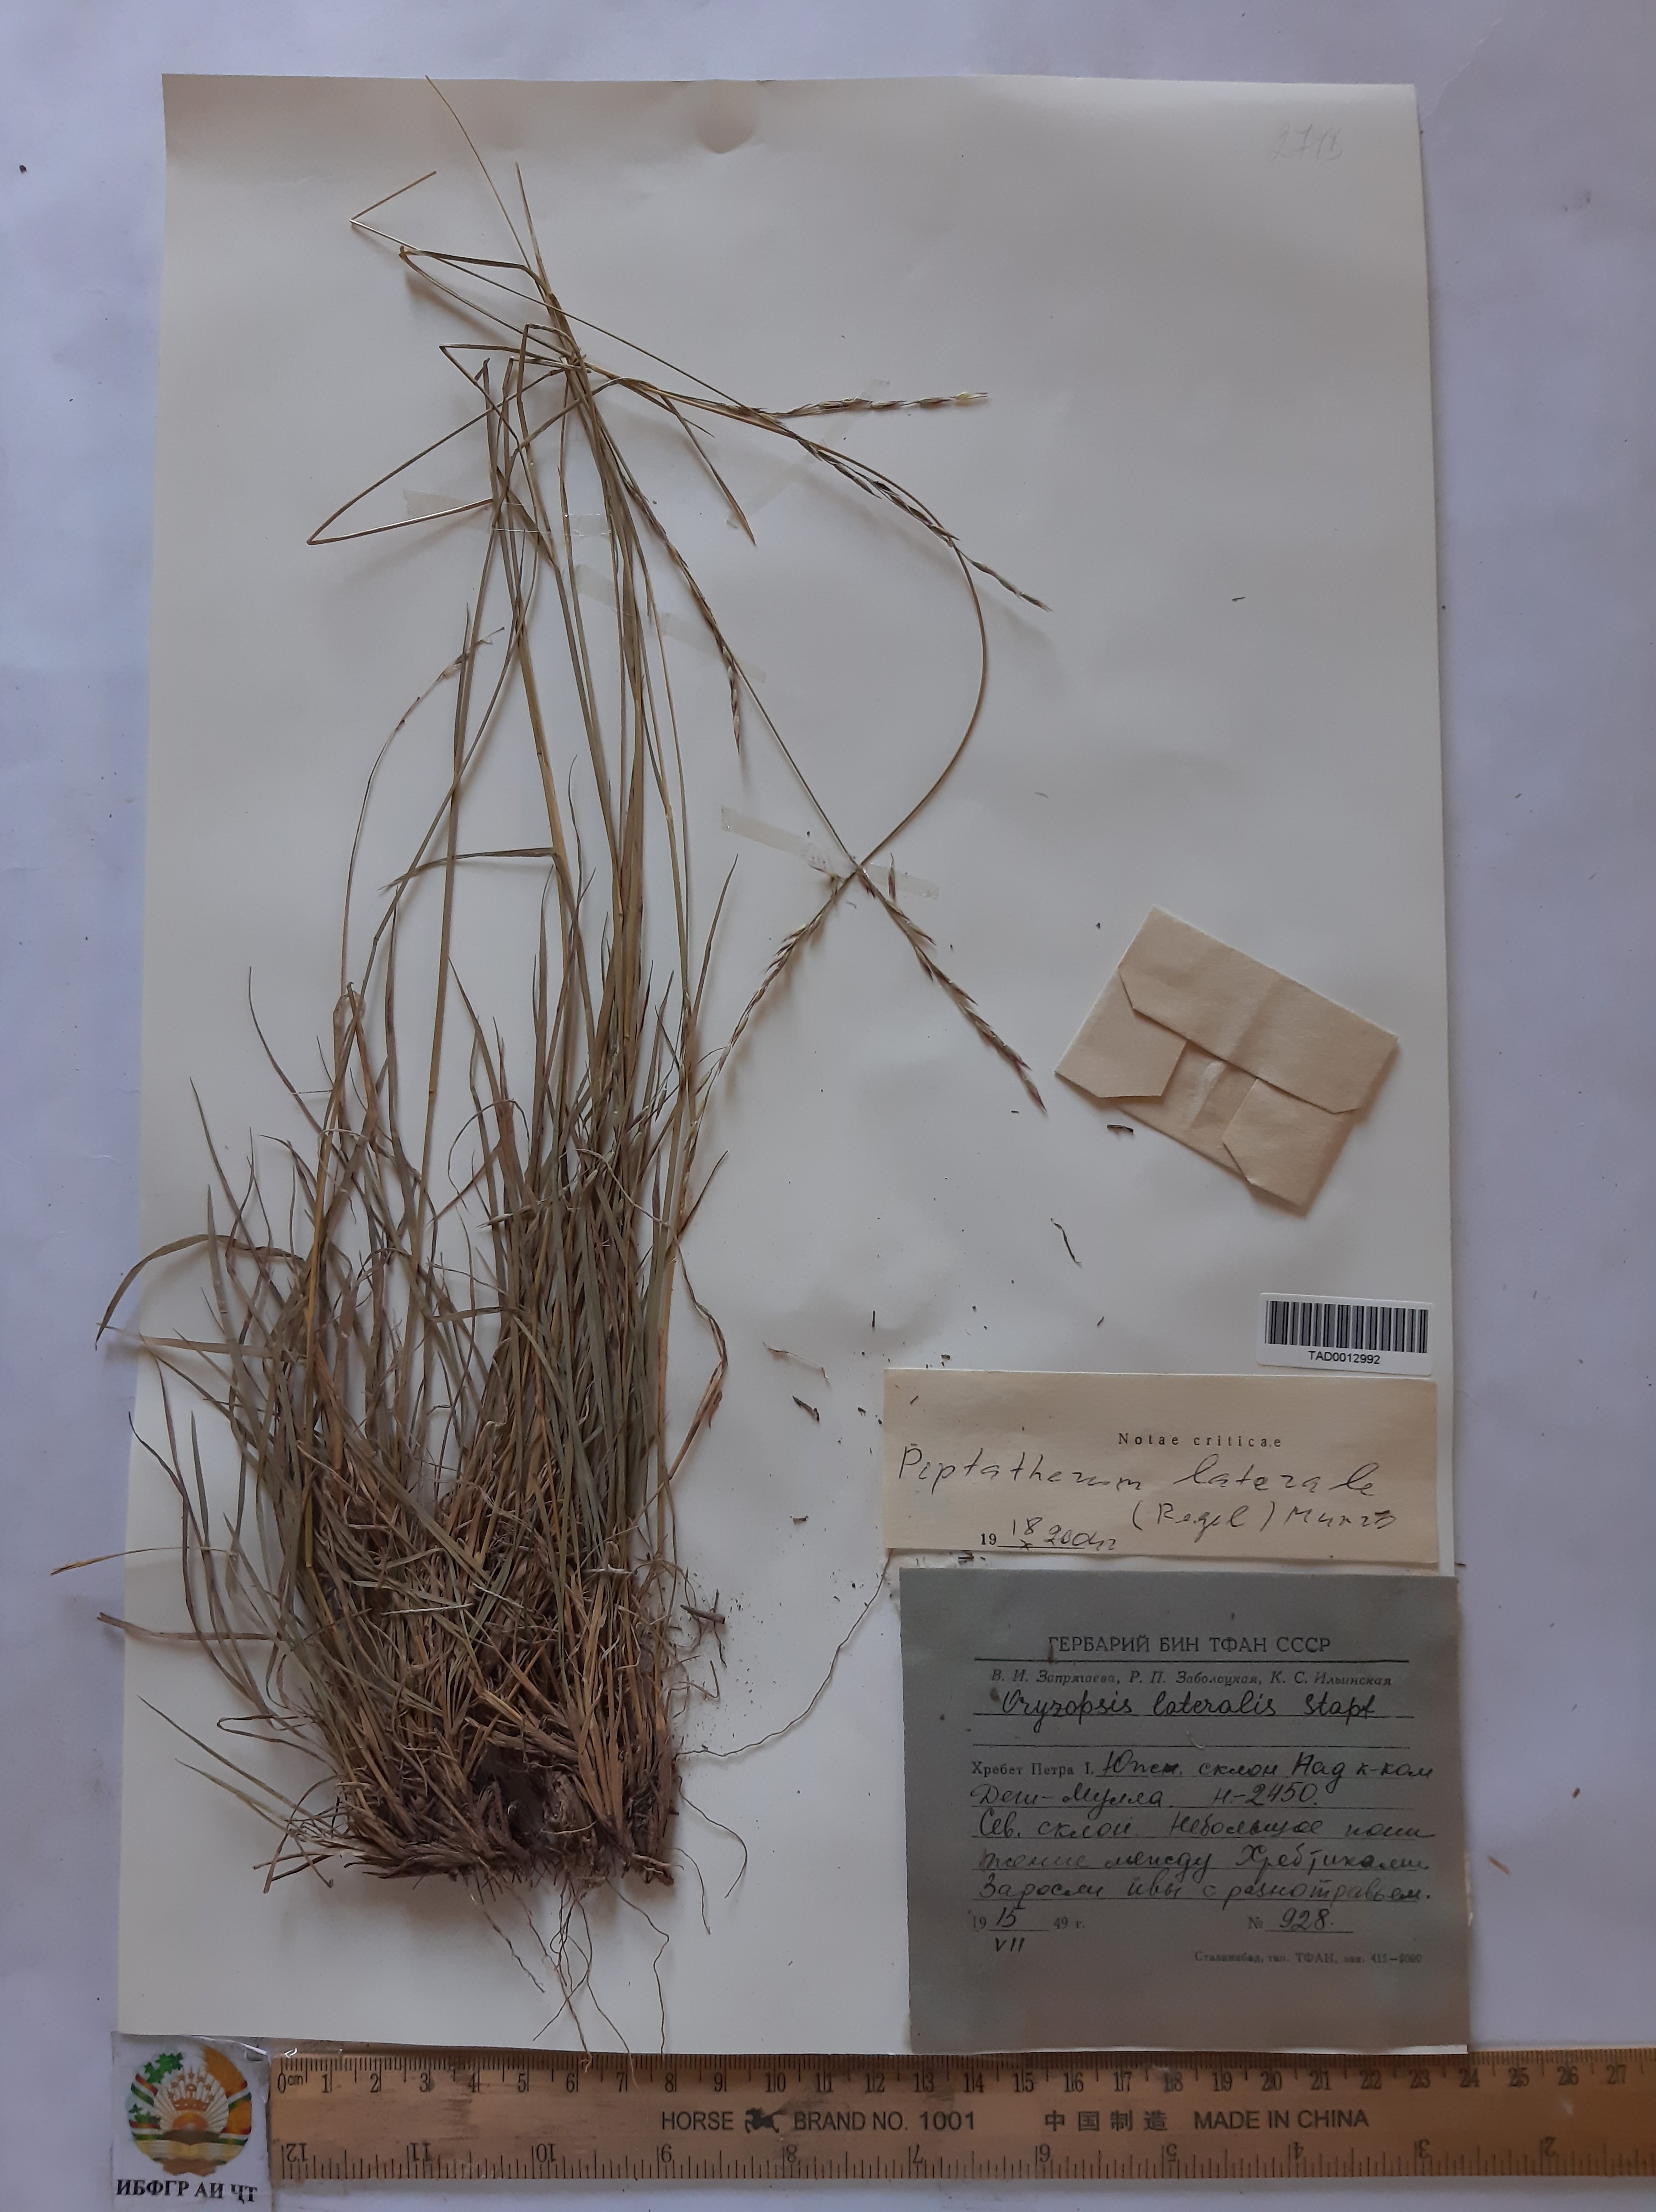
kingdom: Plantae
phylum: Tracheophyta
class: Liliopsida
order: Poales
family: Poaceae
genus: Piptatherum
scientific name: Piptatherum laterale
